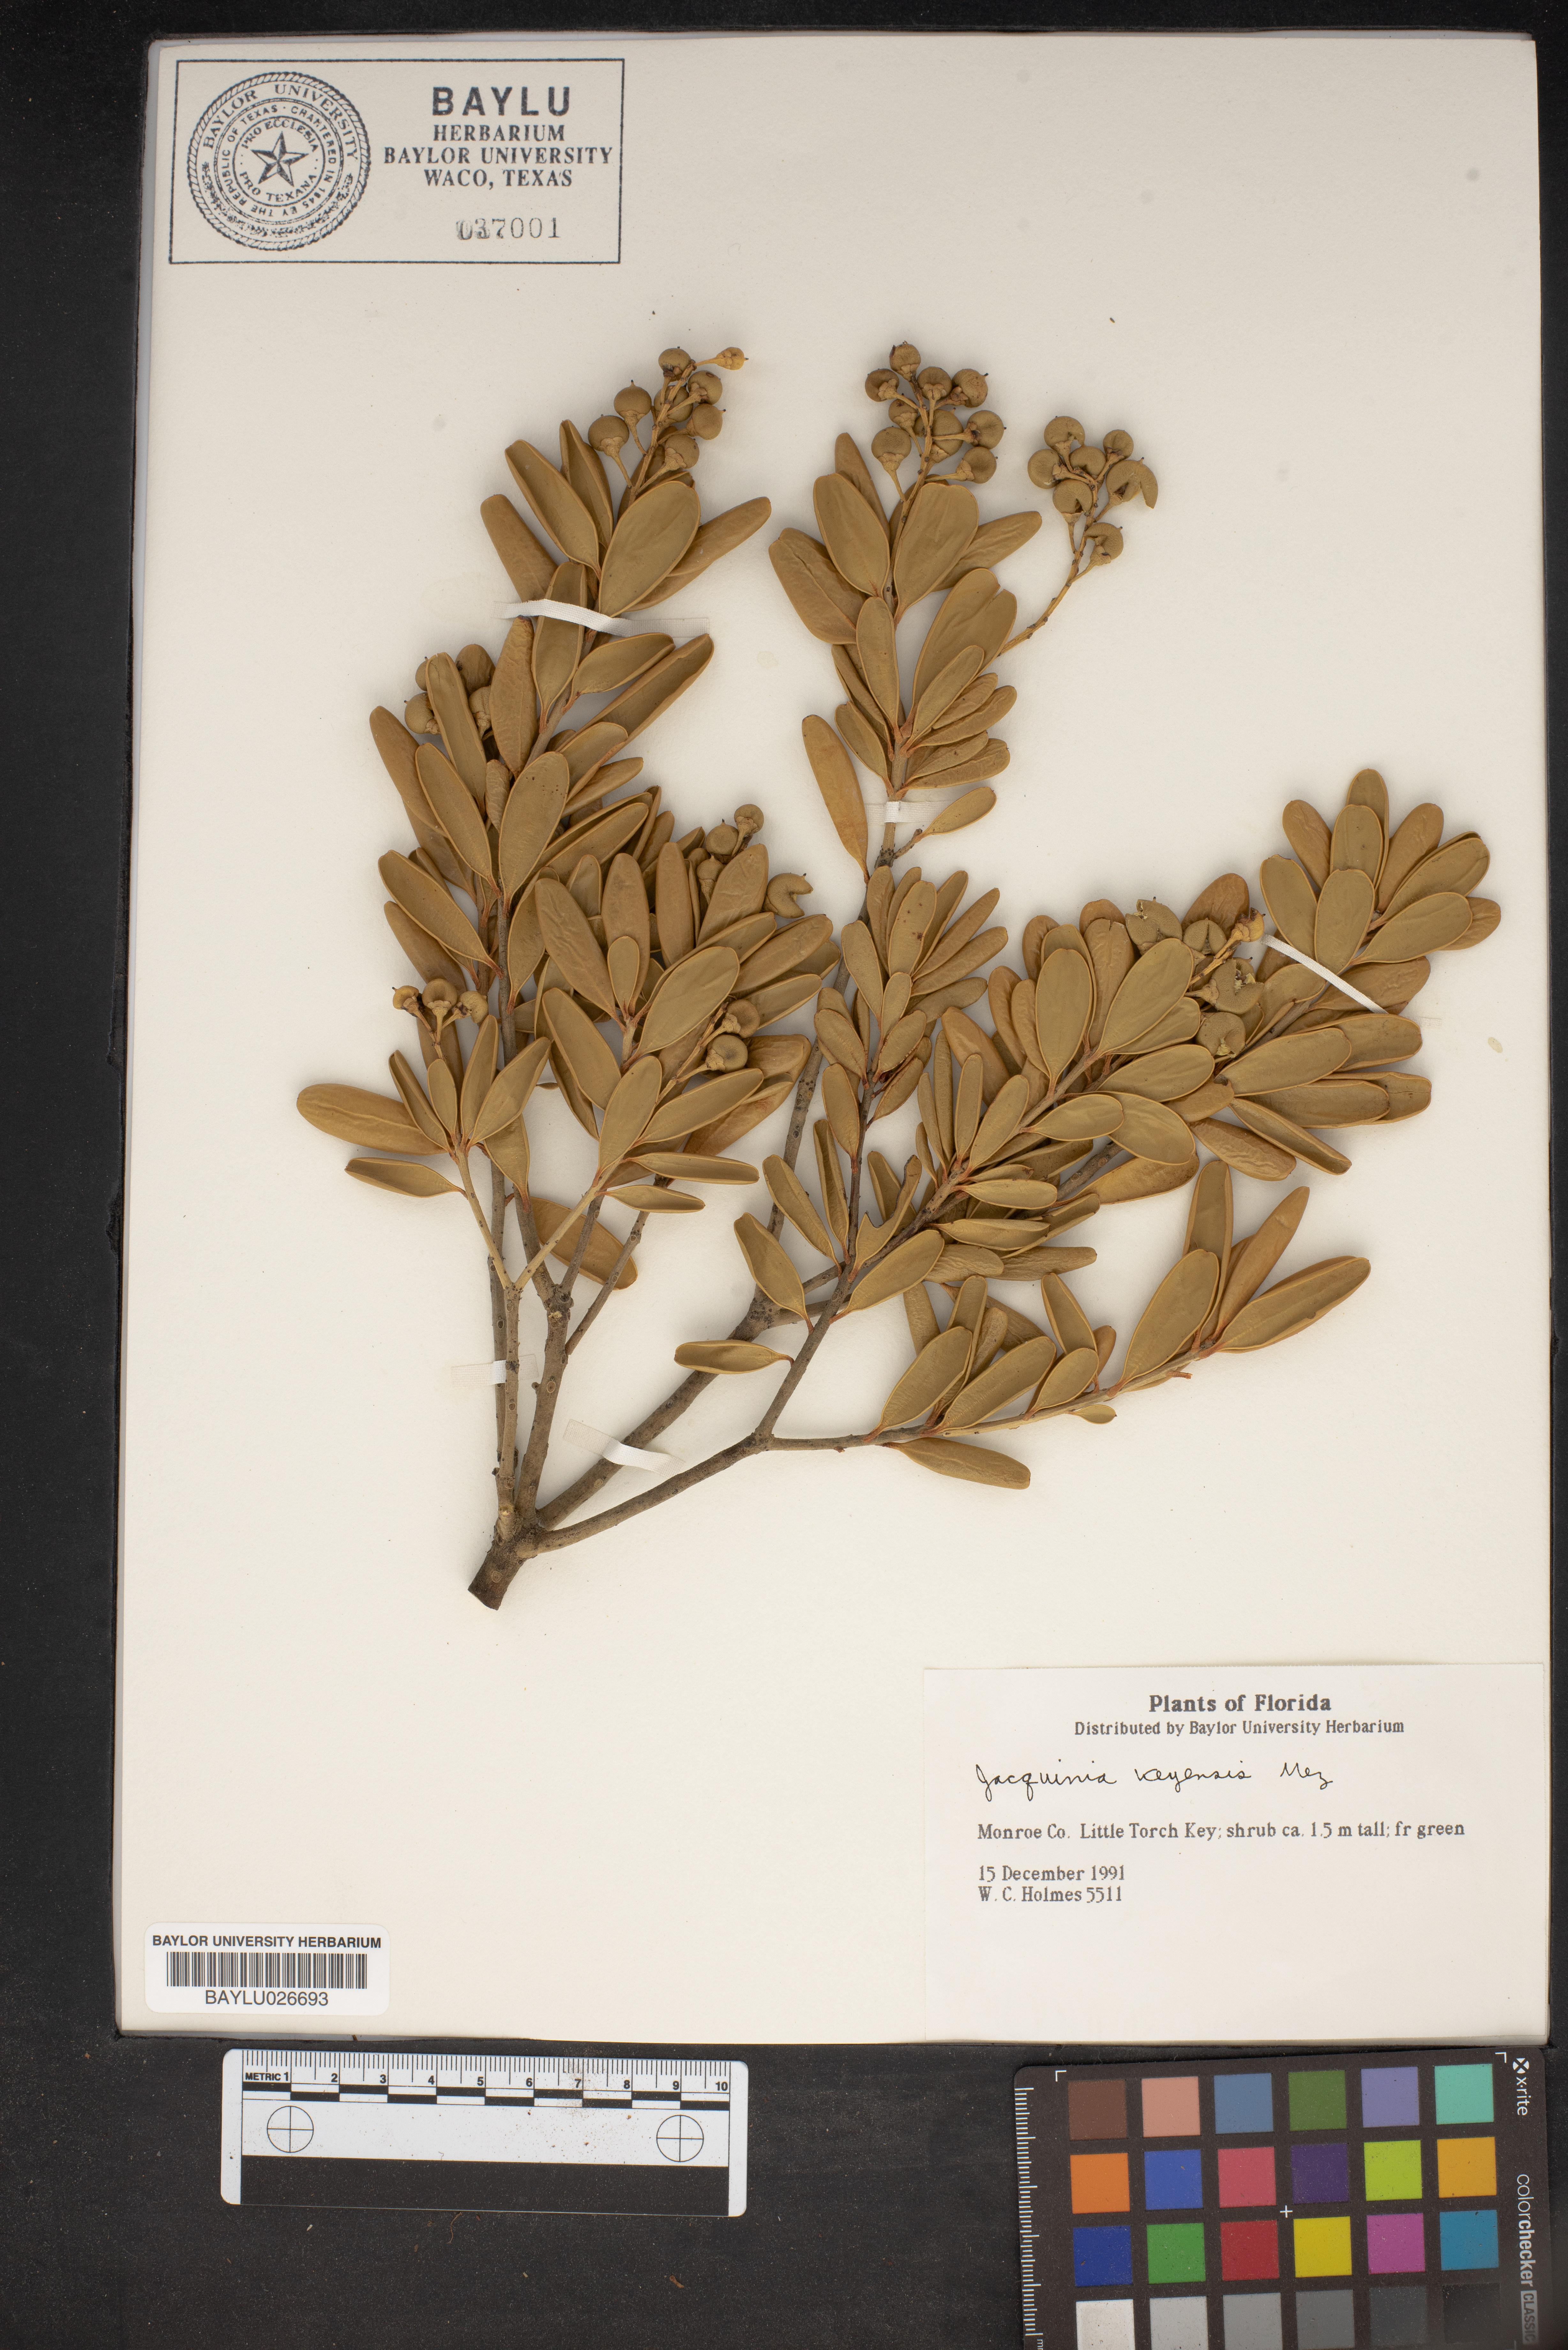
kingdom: Plantae
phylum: Tracheophyta
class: Magnoliopsida
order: Ericales
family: Primulaceae
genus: Jacquinia
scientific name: Jacquinia keyensis
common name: Joebush
